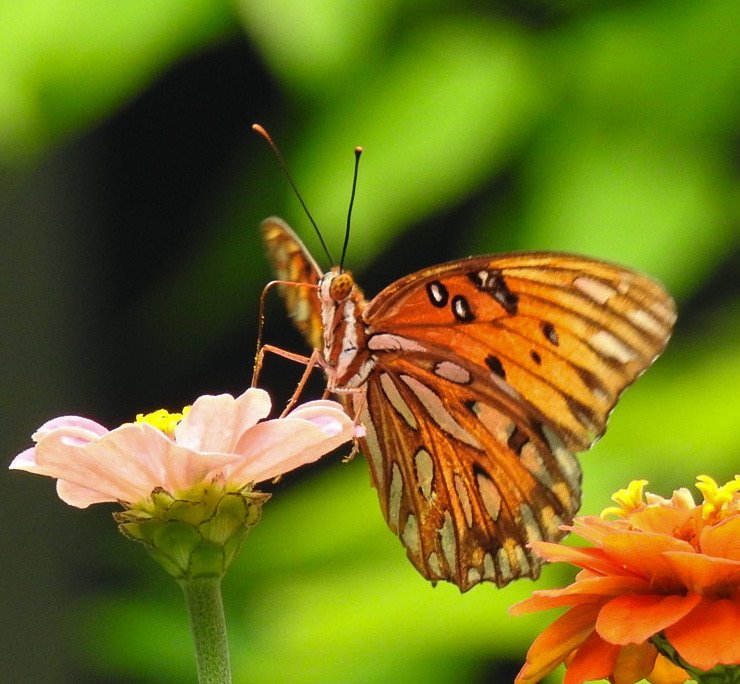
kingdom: Animalia
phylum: Arthropoda
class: Insecta
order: Lepidoptera
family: Nymphalidae
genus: Dione
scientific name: Dione vanillae
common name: Gulf Fritillary
